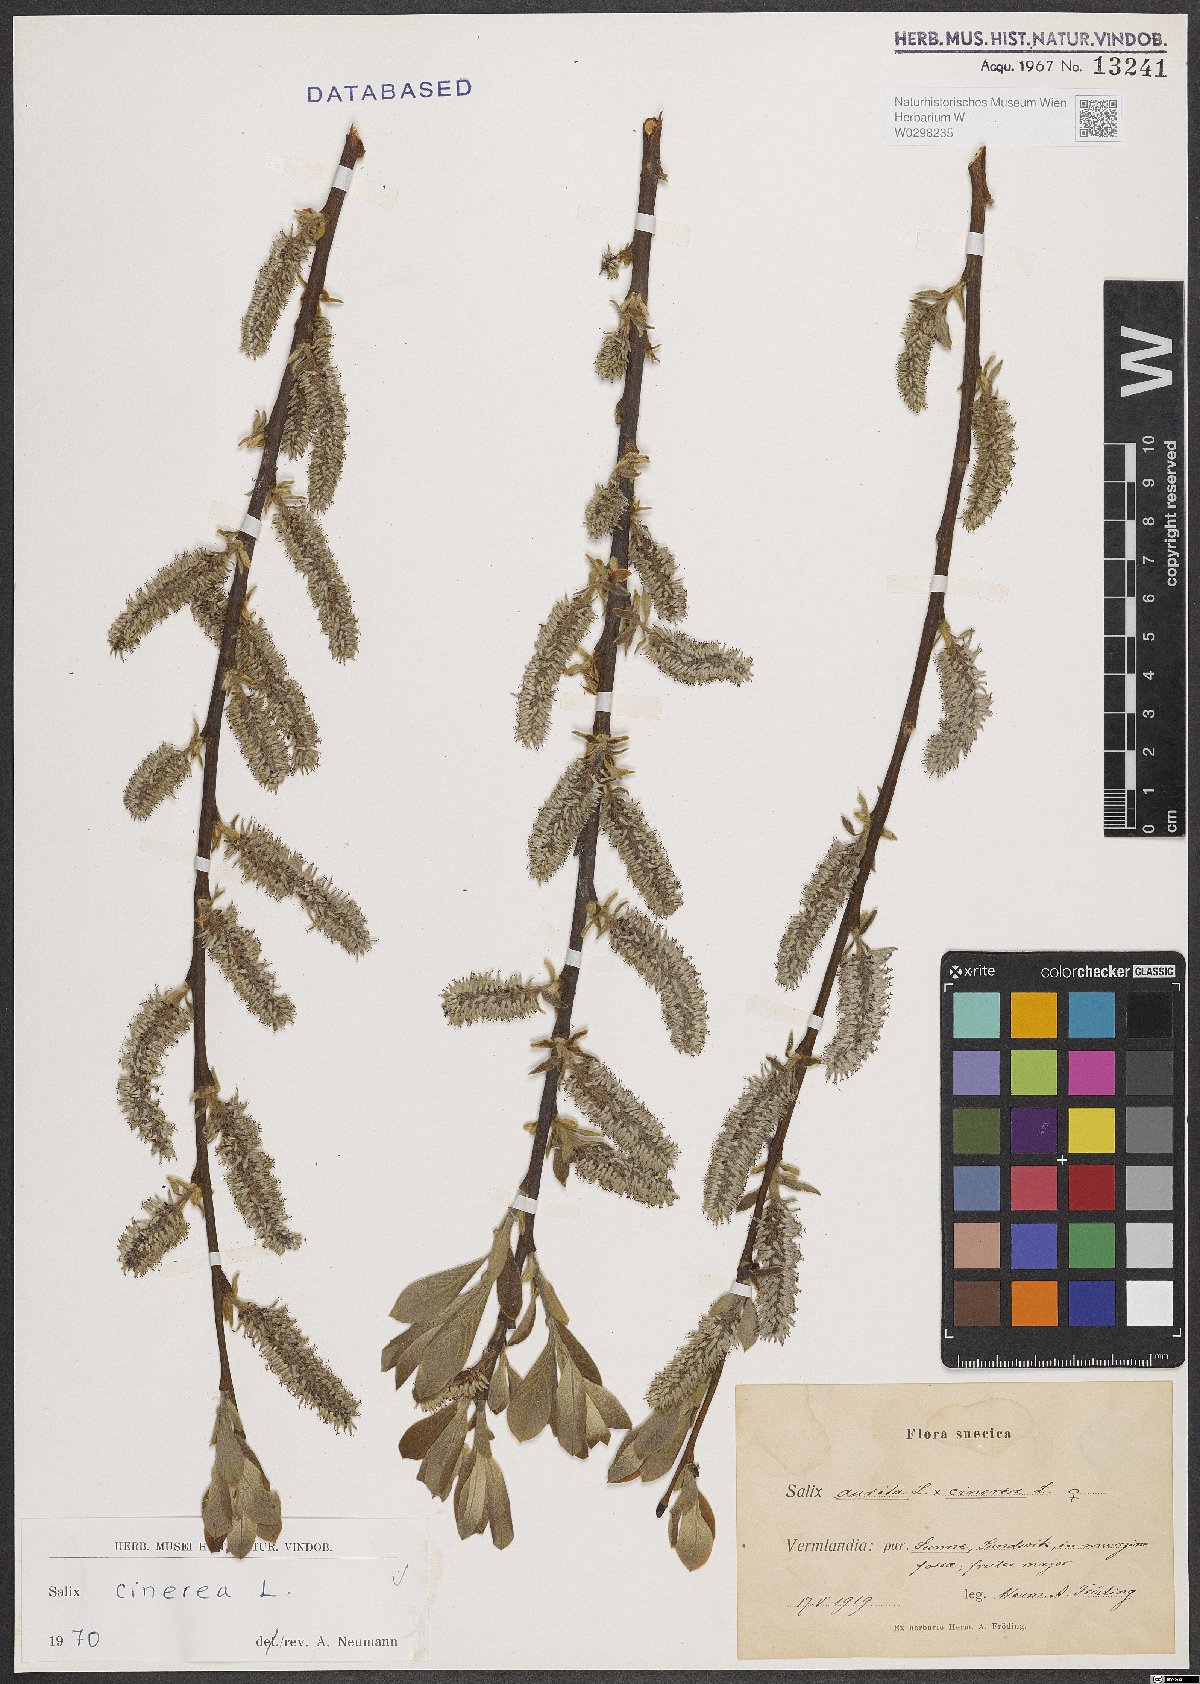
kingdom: Plantae
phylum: Tracheophyta
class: Magnoliopsida
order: Malpighiales
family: Salicaceae
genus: Salix
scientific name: Salix cinerea
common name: Common sallow
